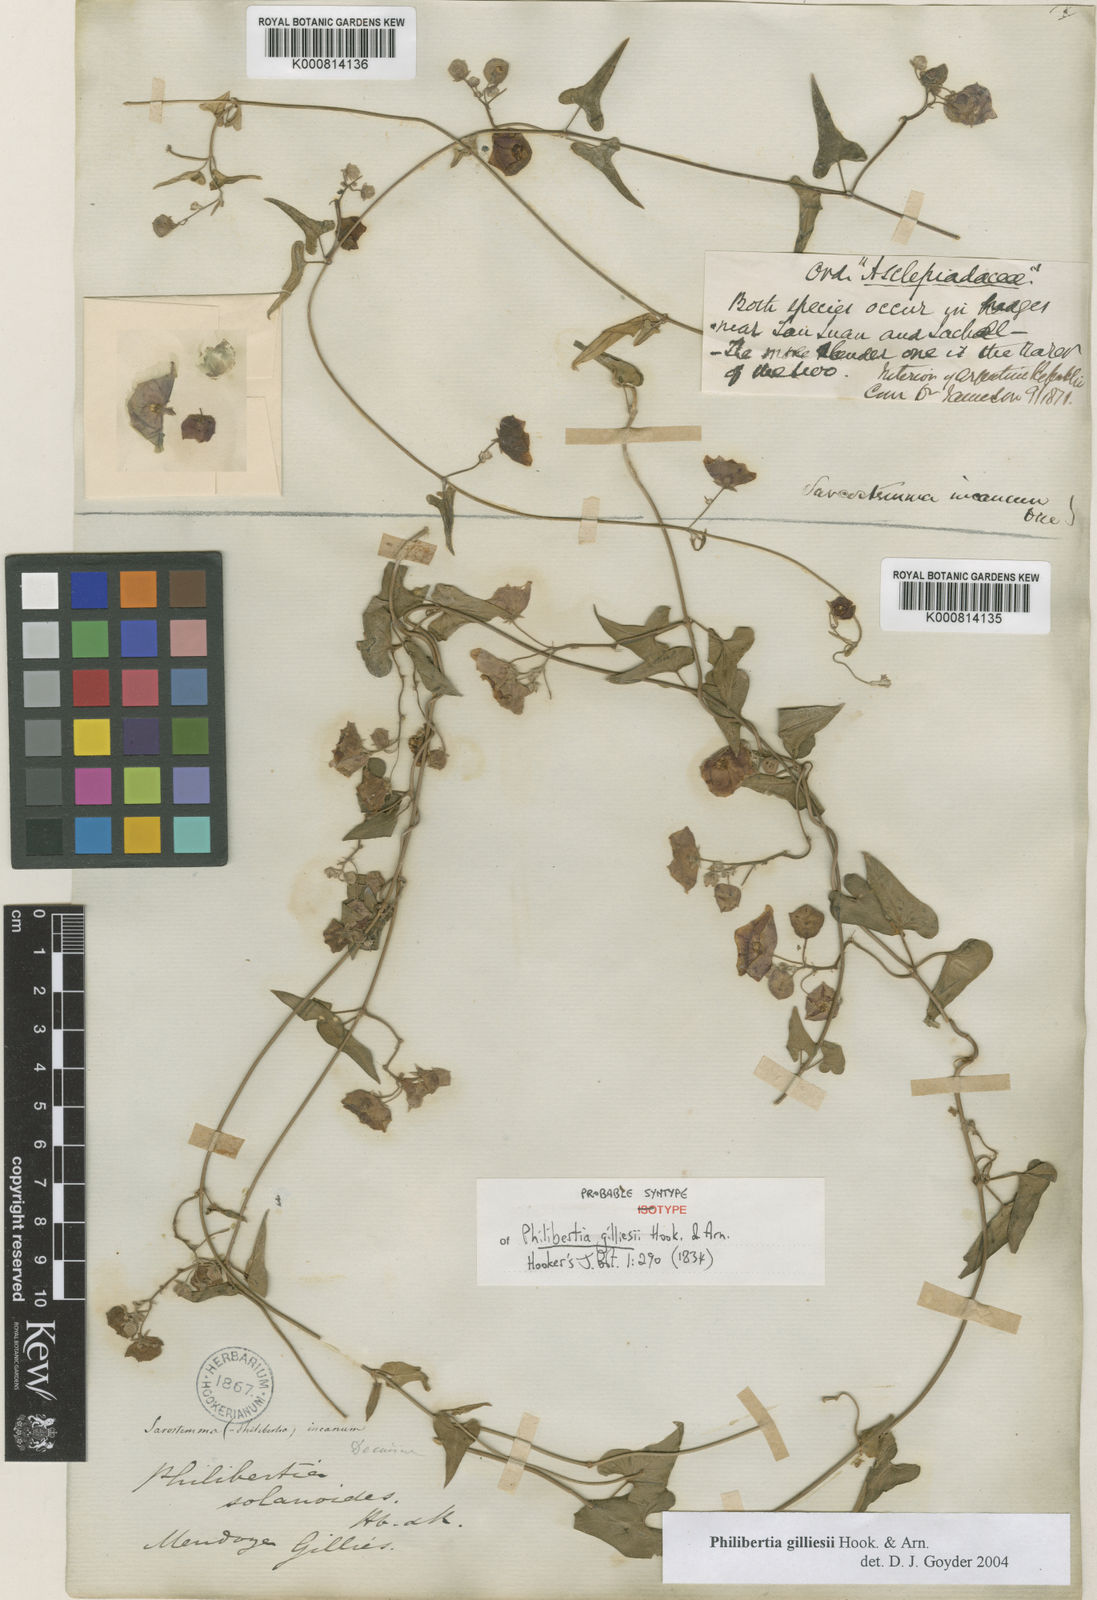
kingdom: Plantae
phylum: Tracheophyta
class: Magnoliopsida
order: Gentianales
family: Apocynaceae
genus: Philibertia
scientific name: Philibertia gilliesii
